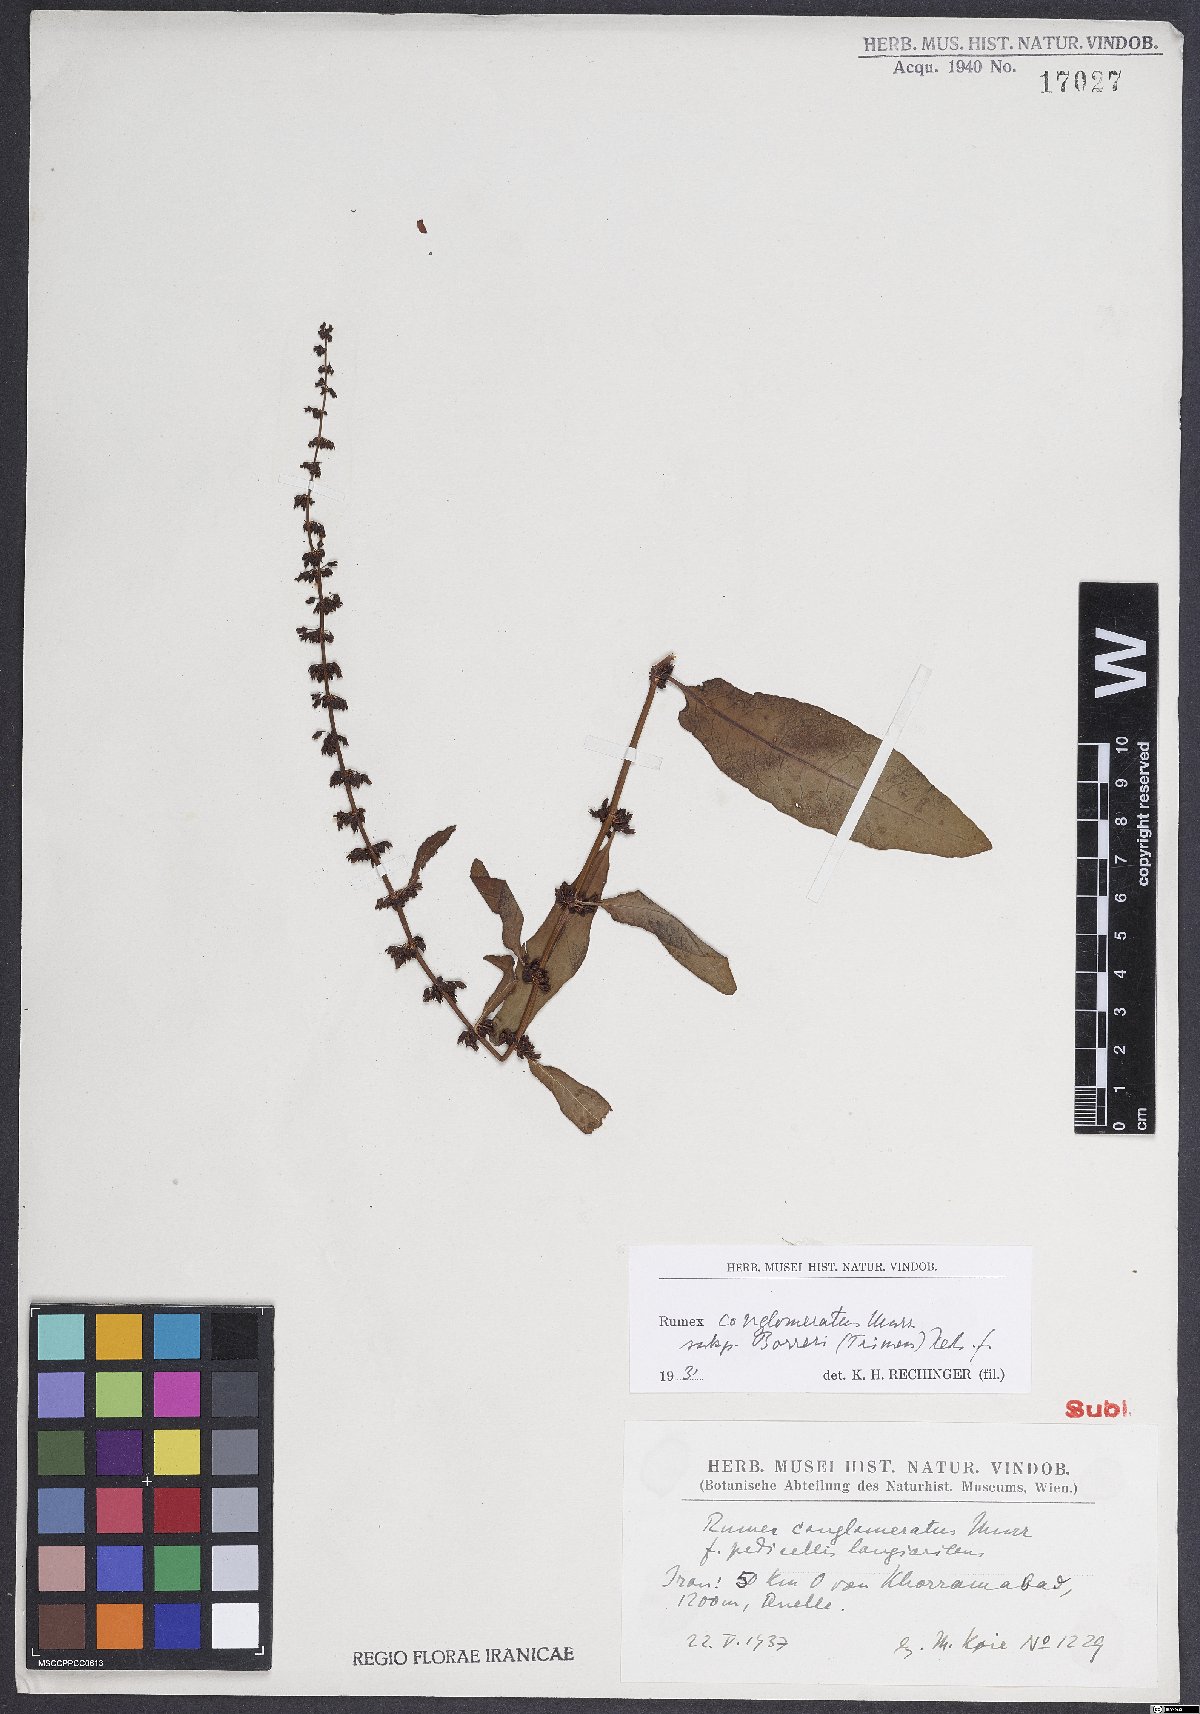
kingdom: Plantae
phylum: Tracheophyta
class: Magnoliopsida
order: Caryophyllales
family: Polygonaceae
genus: Rumex
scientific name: Rumex conglomeratus
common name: Clustered dock
